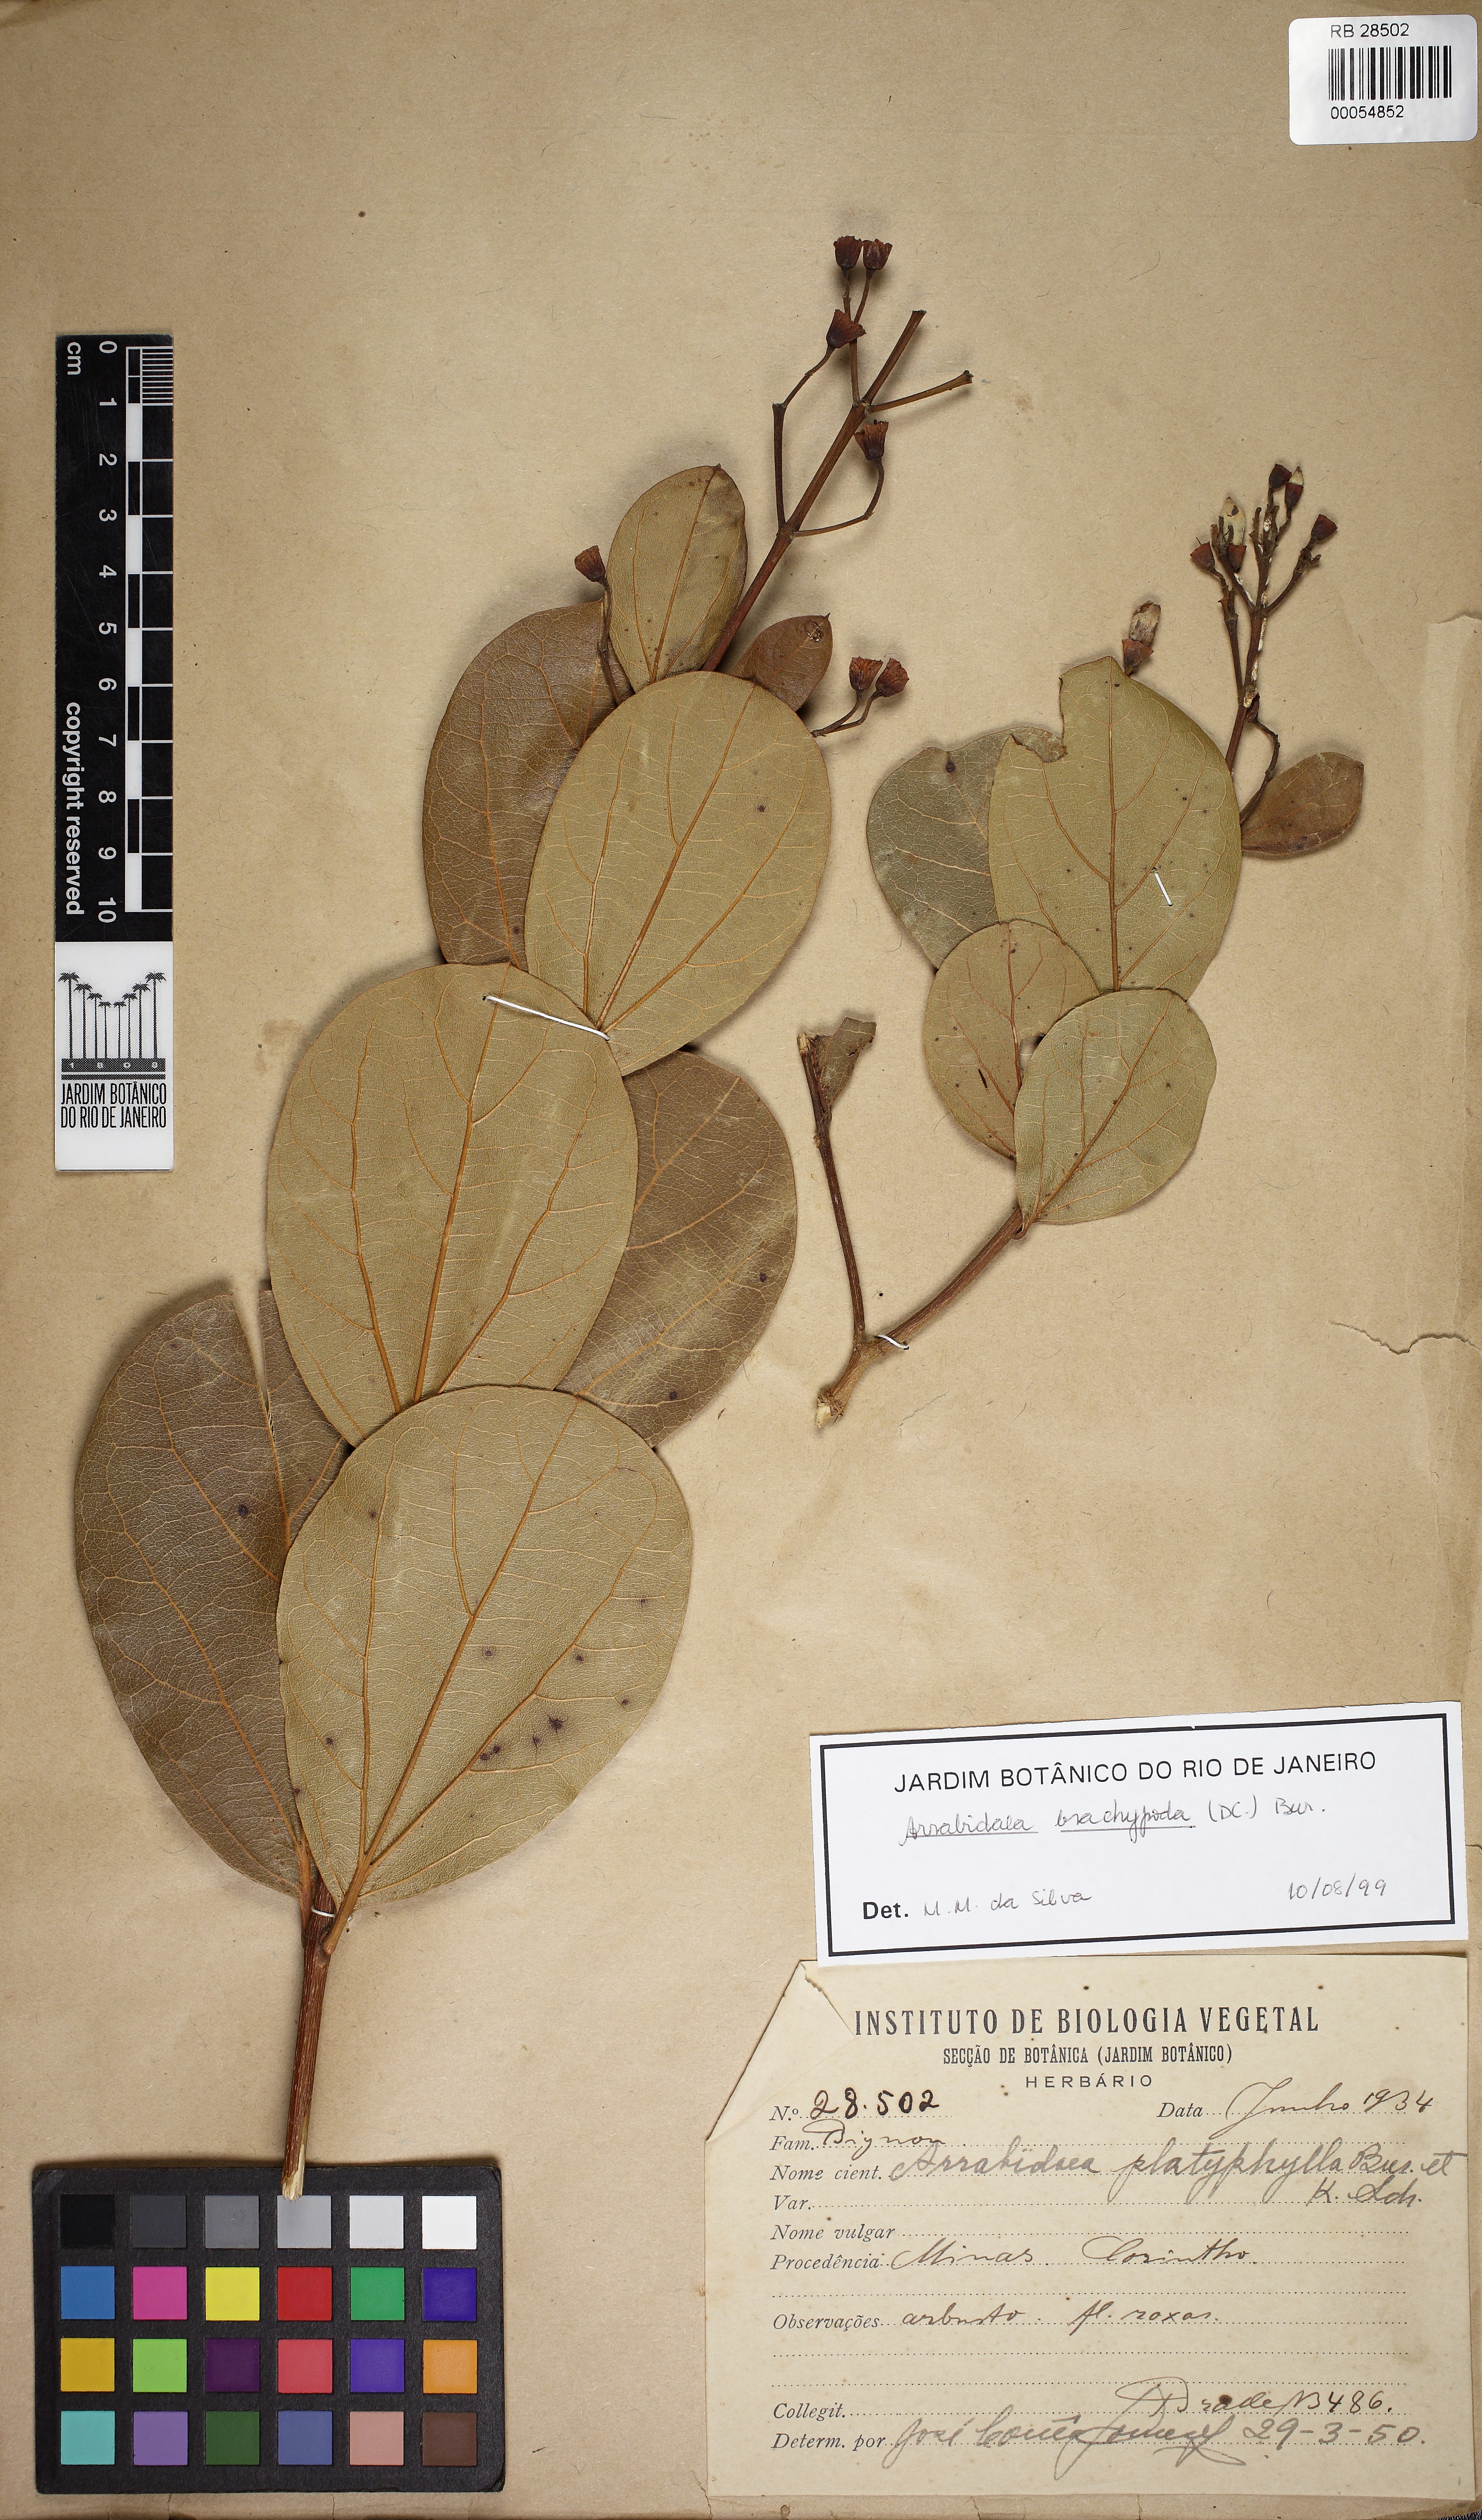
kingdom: Plantae
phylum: Tracheophyta
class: Magnoliopsida
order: Lamiales
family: Bignoniaceae
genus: Fridericia
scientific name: Fridericia platyphylla
